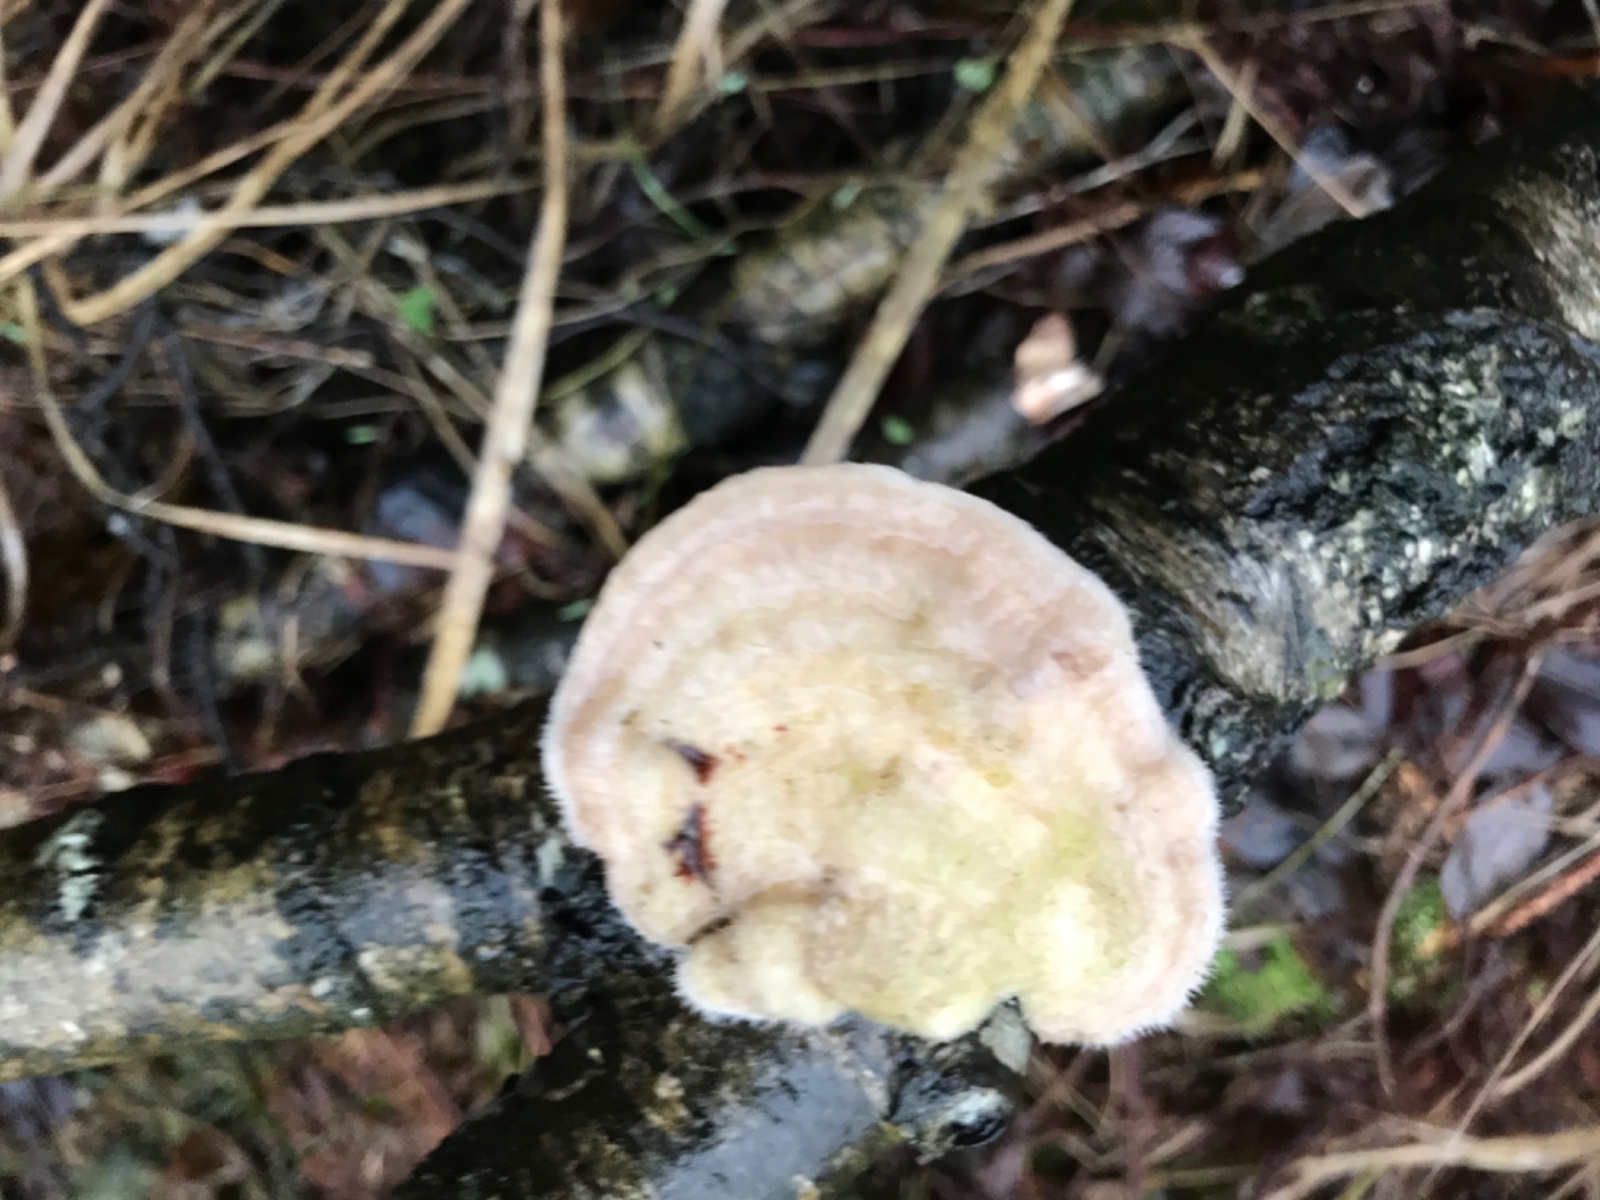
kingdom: Fungi
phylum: Basidiomycota
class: Agaricomycetes
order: Polyporales
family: Polyporaceae
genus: Trametes
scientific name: Trametes hirsuta
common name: håret læderporesvamp
